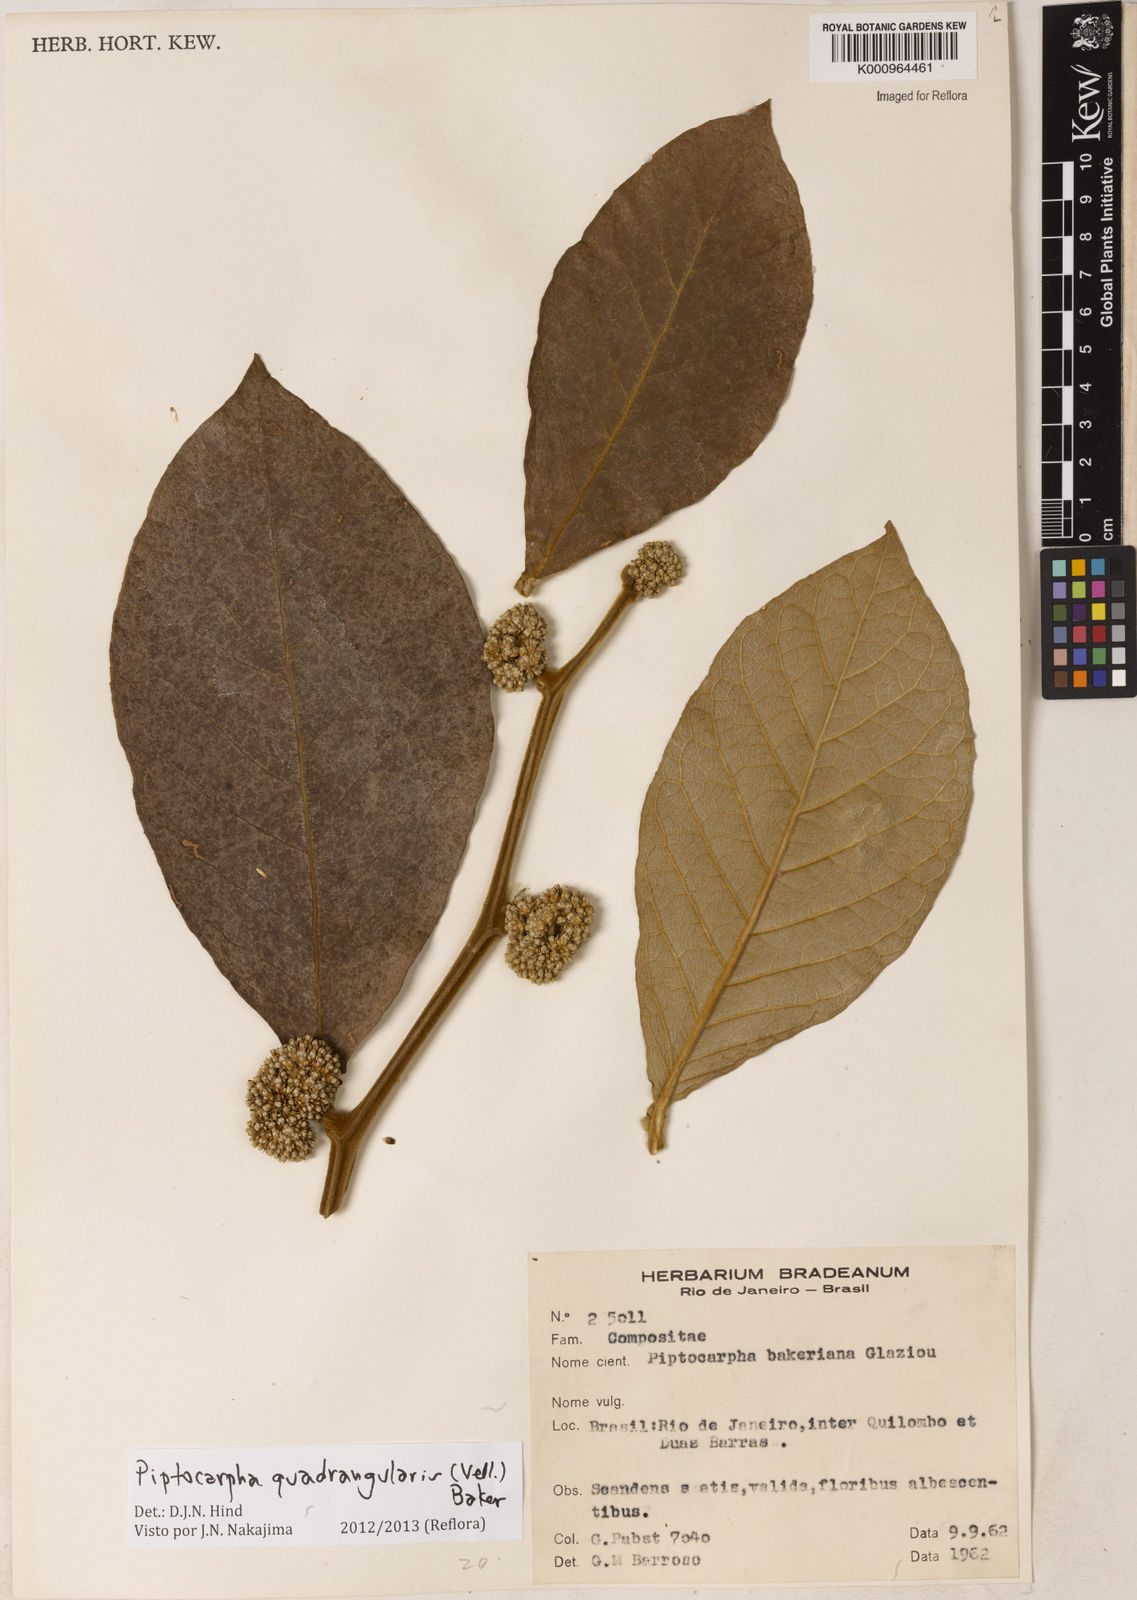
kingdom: Plantae
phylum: Tracheophyta
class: Magnoliopsida
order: Asterales
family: Asteraceae
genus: Piptocarpha
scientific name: Piptocarpha quadrangularis
